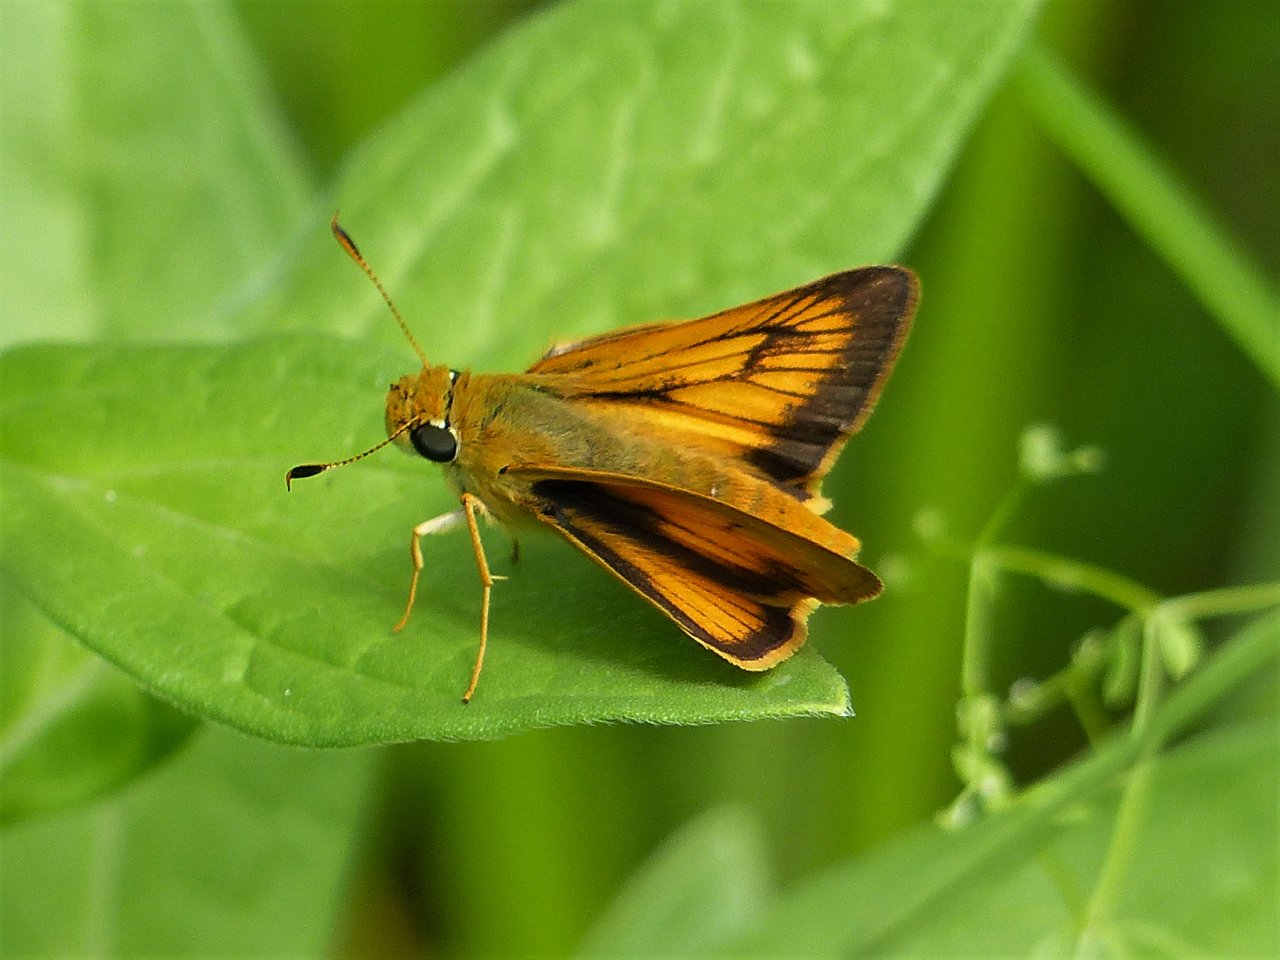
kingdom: Animalia
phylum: Arthropoda
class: Insecta
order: Lepidoptera
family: Hesperiidae
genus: Atrytone
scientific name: Atrytone delaware
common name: Delaware Skipper
